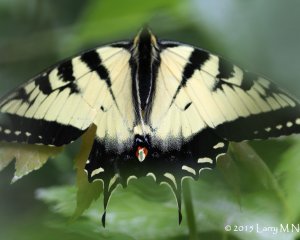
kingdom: Animalia
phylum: Arthropoda
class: Insecta
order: Lepidoptera
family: Papilionidae
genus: Pterourus
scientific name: Pterourus canadensis
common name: Canadian Tiger Swallowtail
